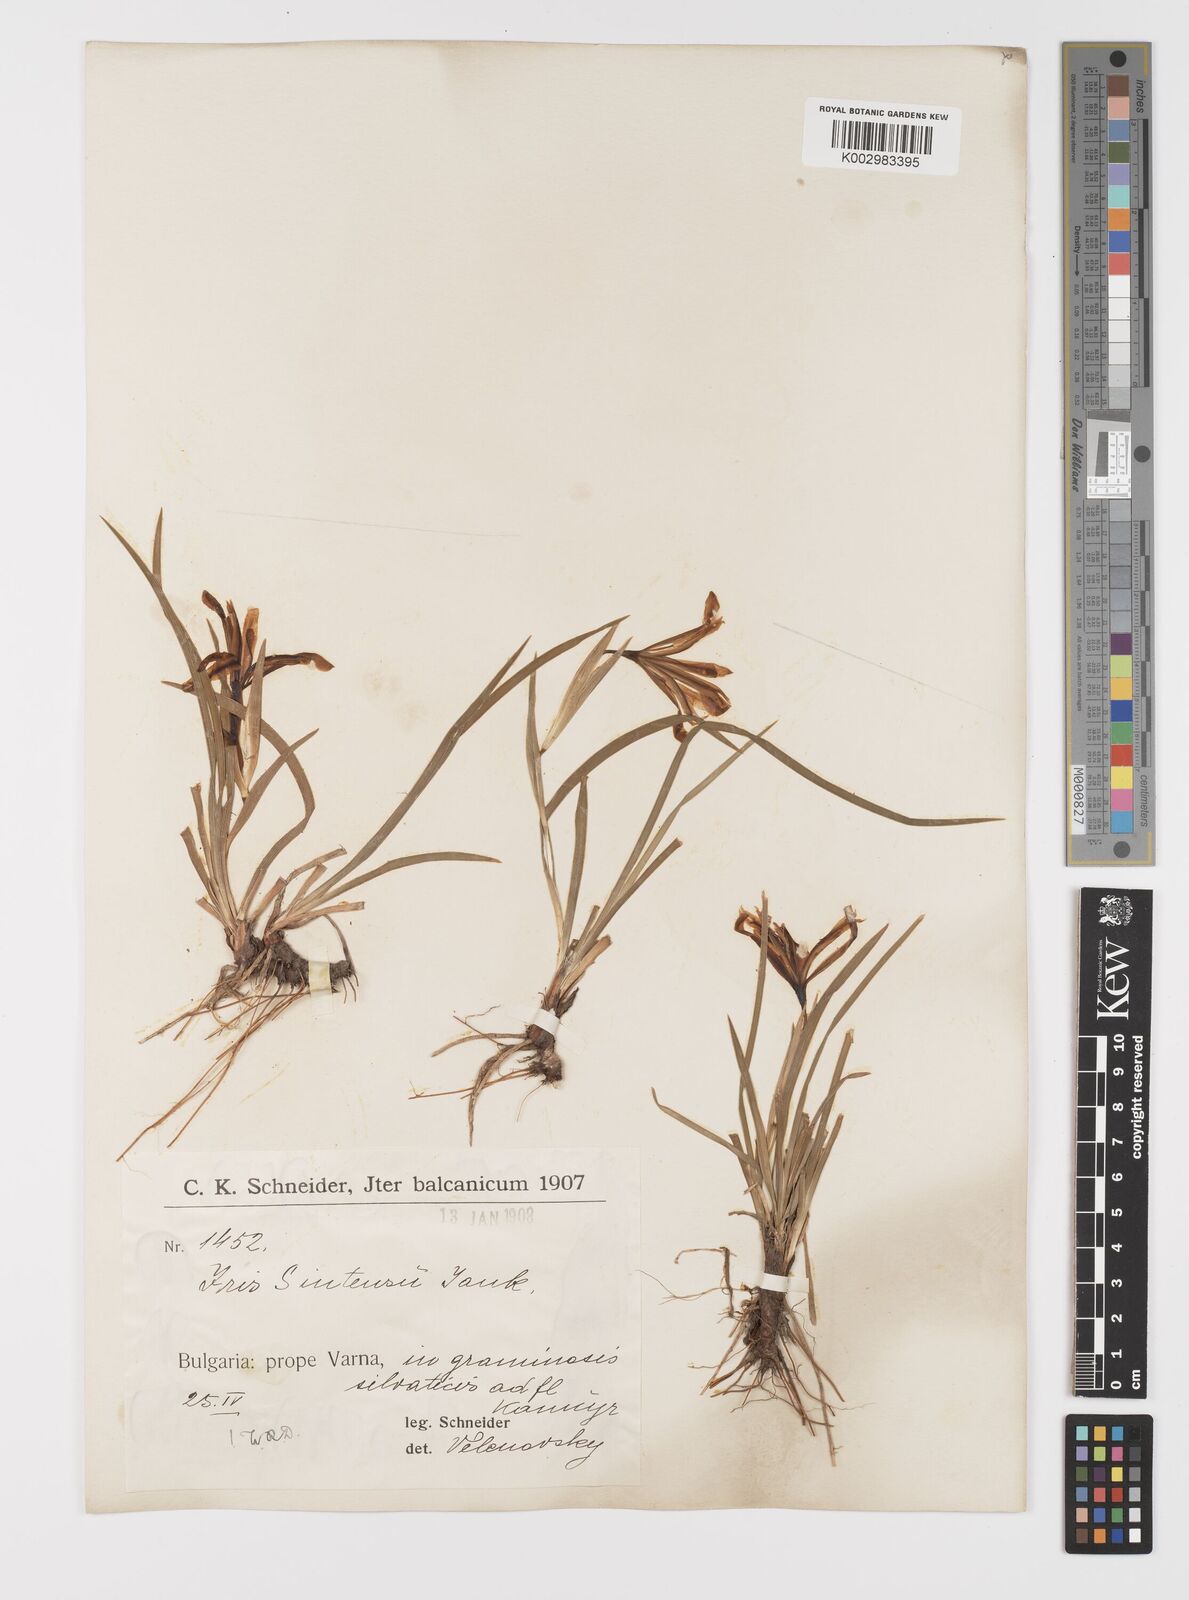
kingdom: Plantae
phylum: Tracheophyta
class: Liliopsida
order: Asparagales
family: Iridaceae
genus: Iris
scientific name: Iris sintenisii
